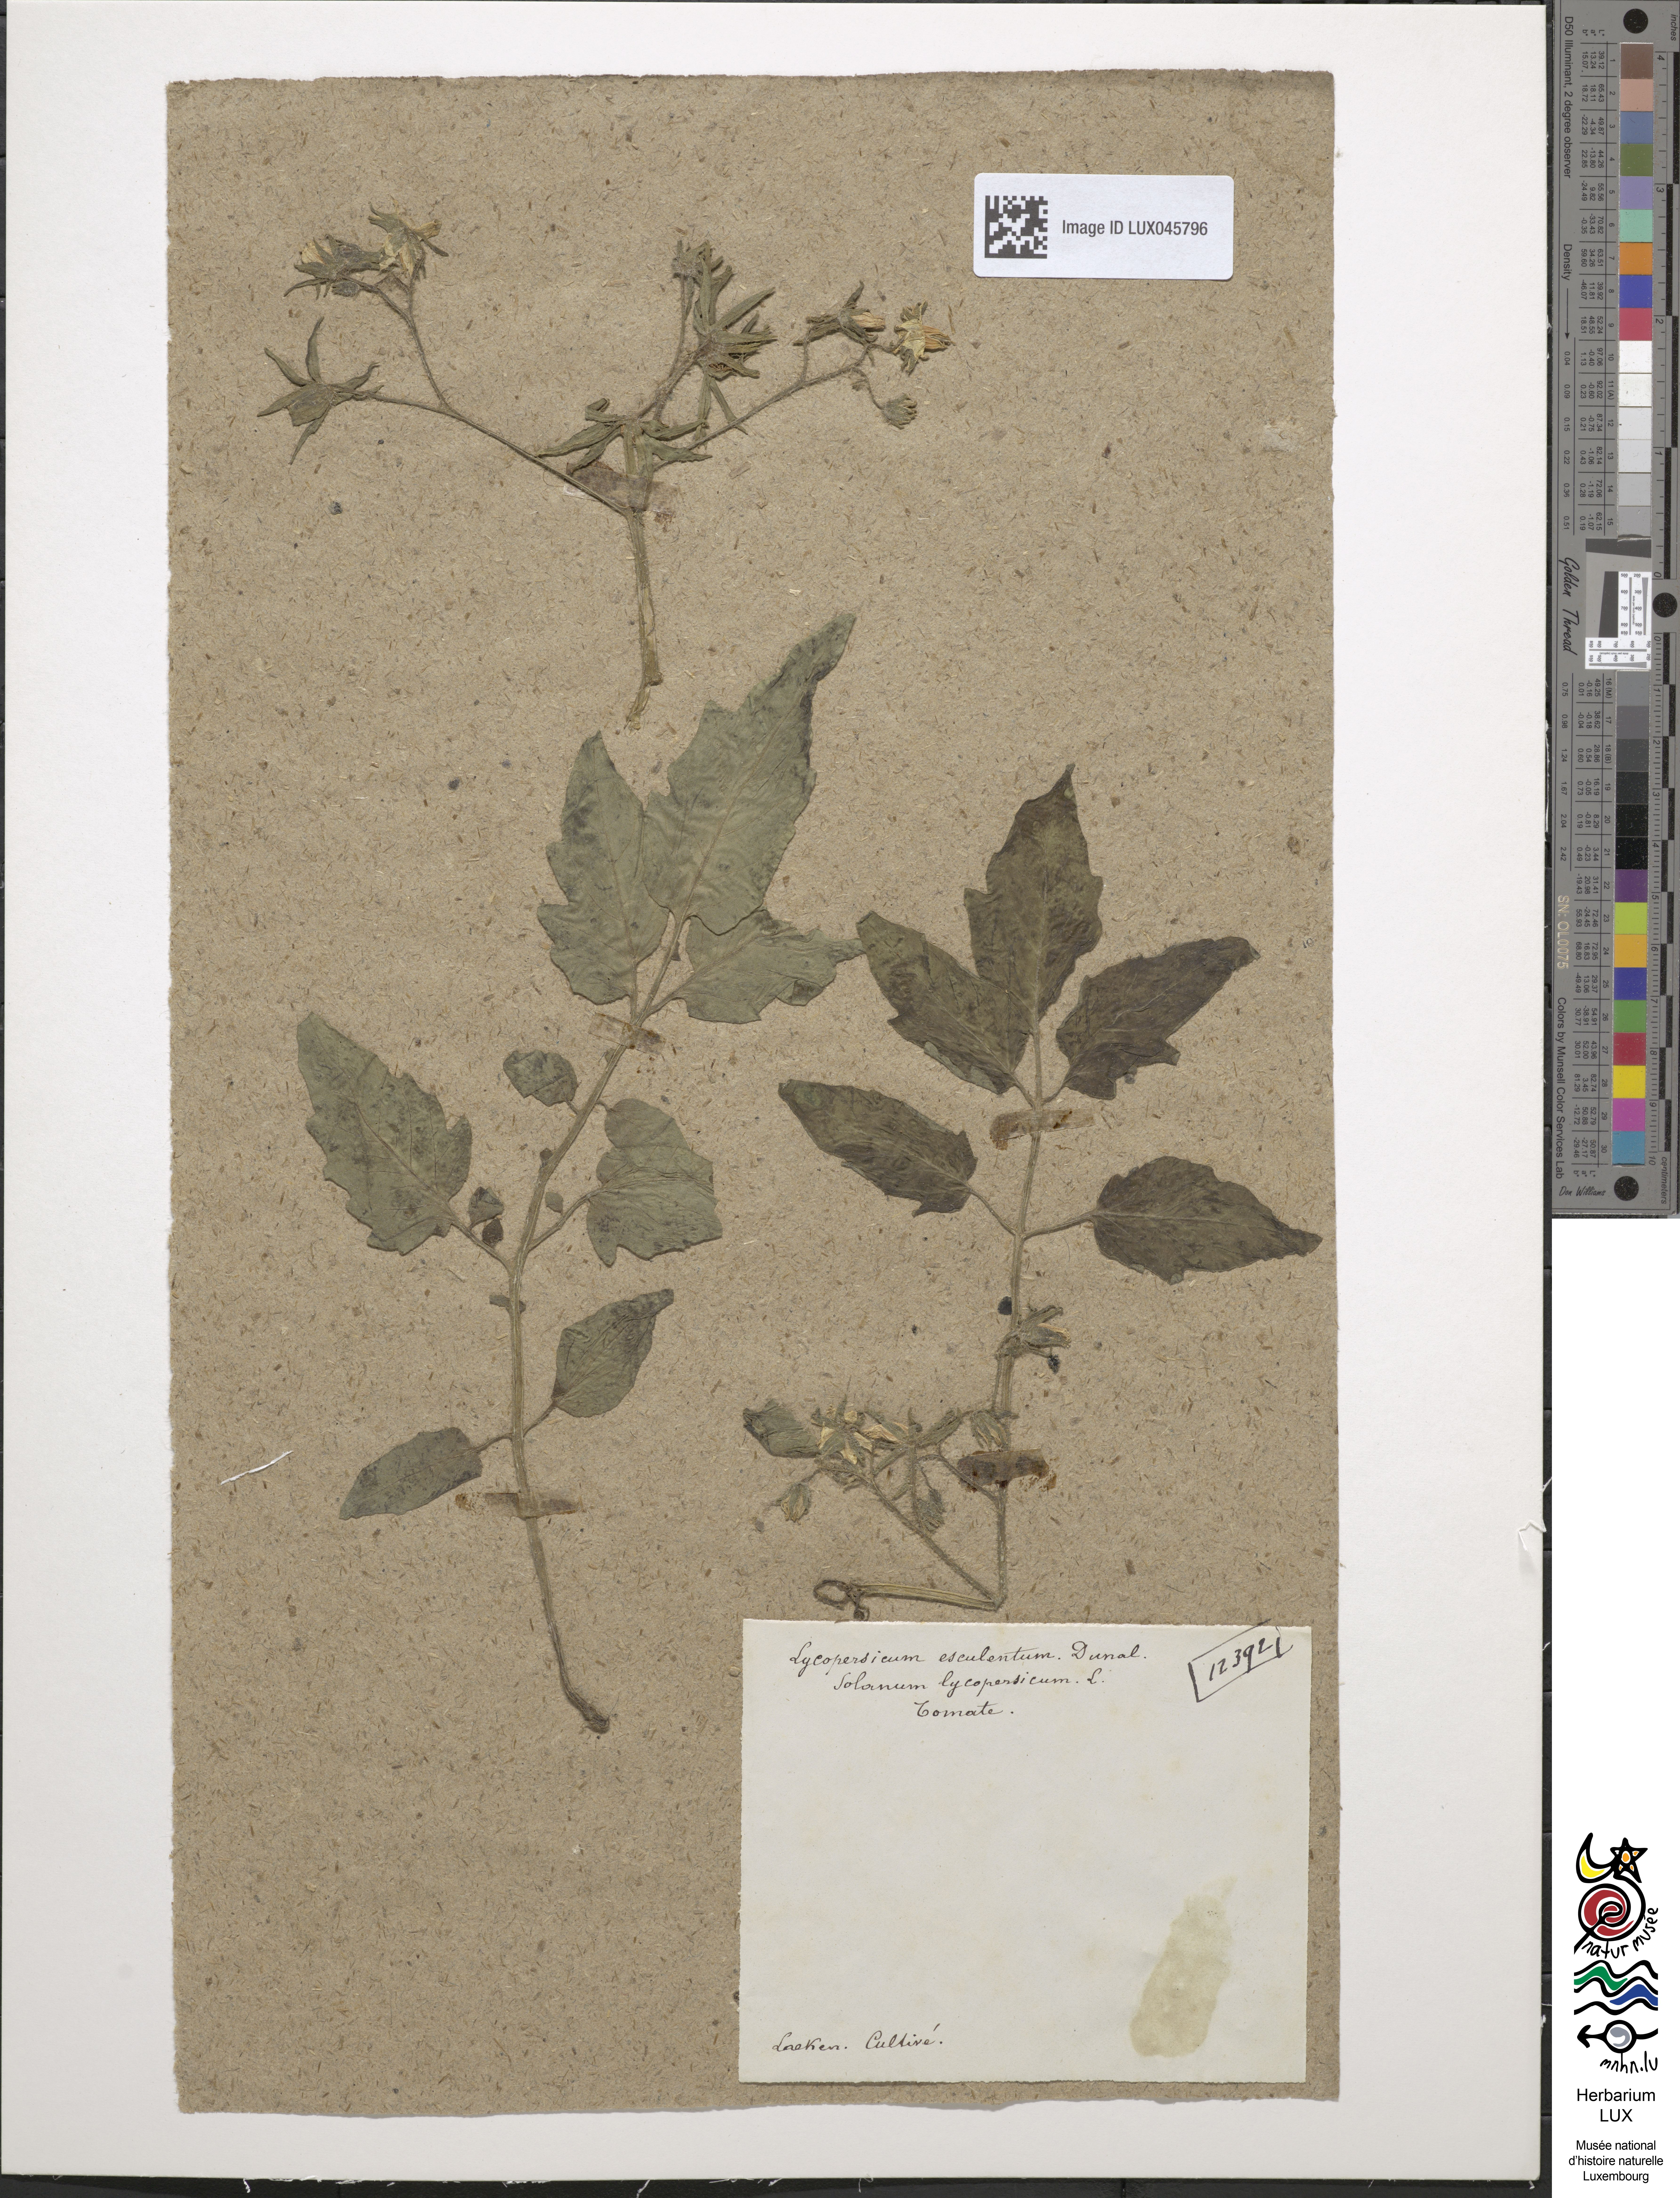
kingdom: Plantae
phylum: Tracheophyta
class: Magnoliopsida
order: Solanales
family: Solanaceae
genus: Solanum
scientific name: Solanum lycopersicum
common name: Garden tomato
